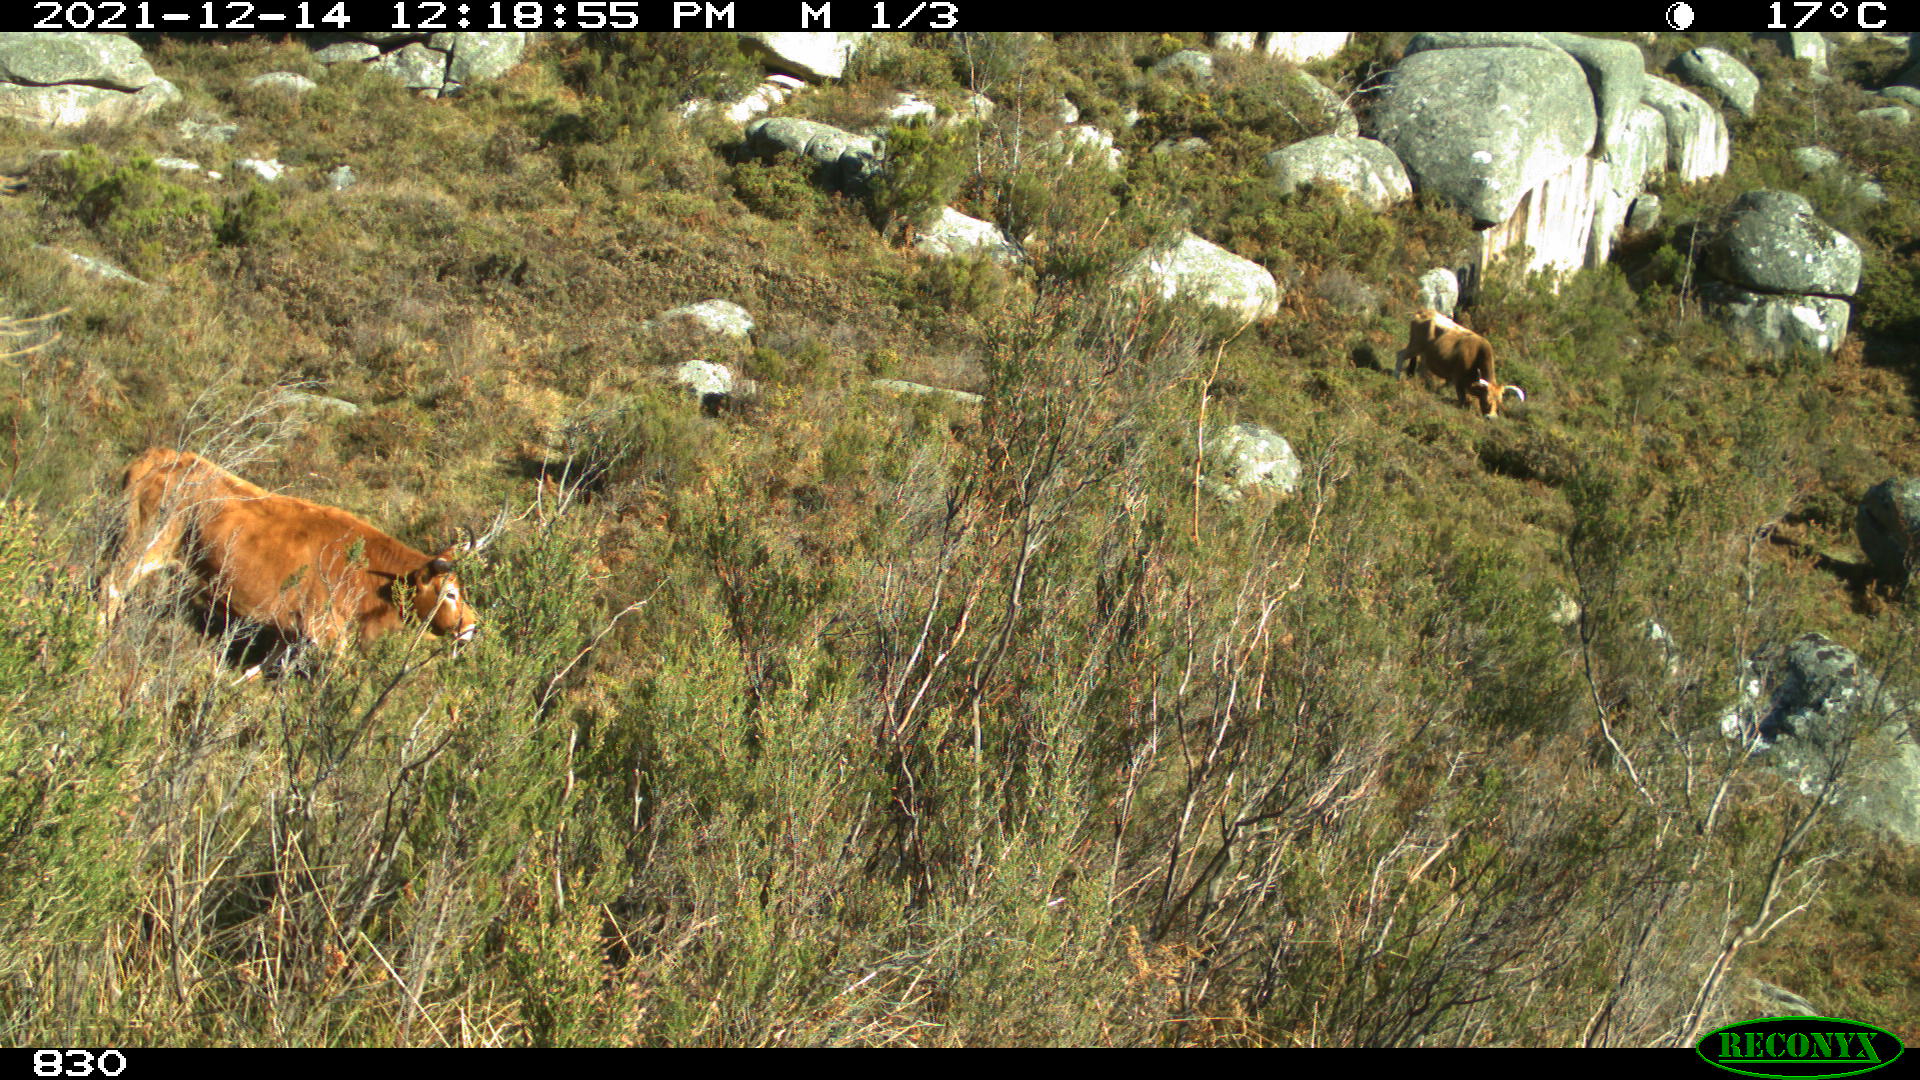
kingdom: Animalia
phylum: Chordata
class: Mammalia
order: Artiodactyla
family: Bovidae
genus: Bos
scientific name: Bos taurus
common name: Domesticated cattle
